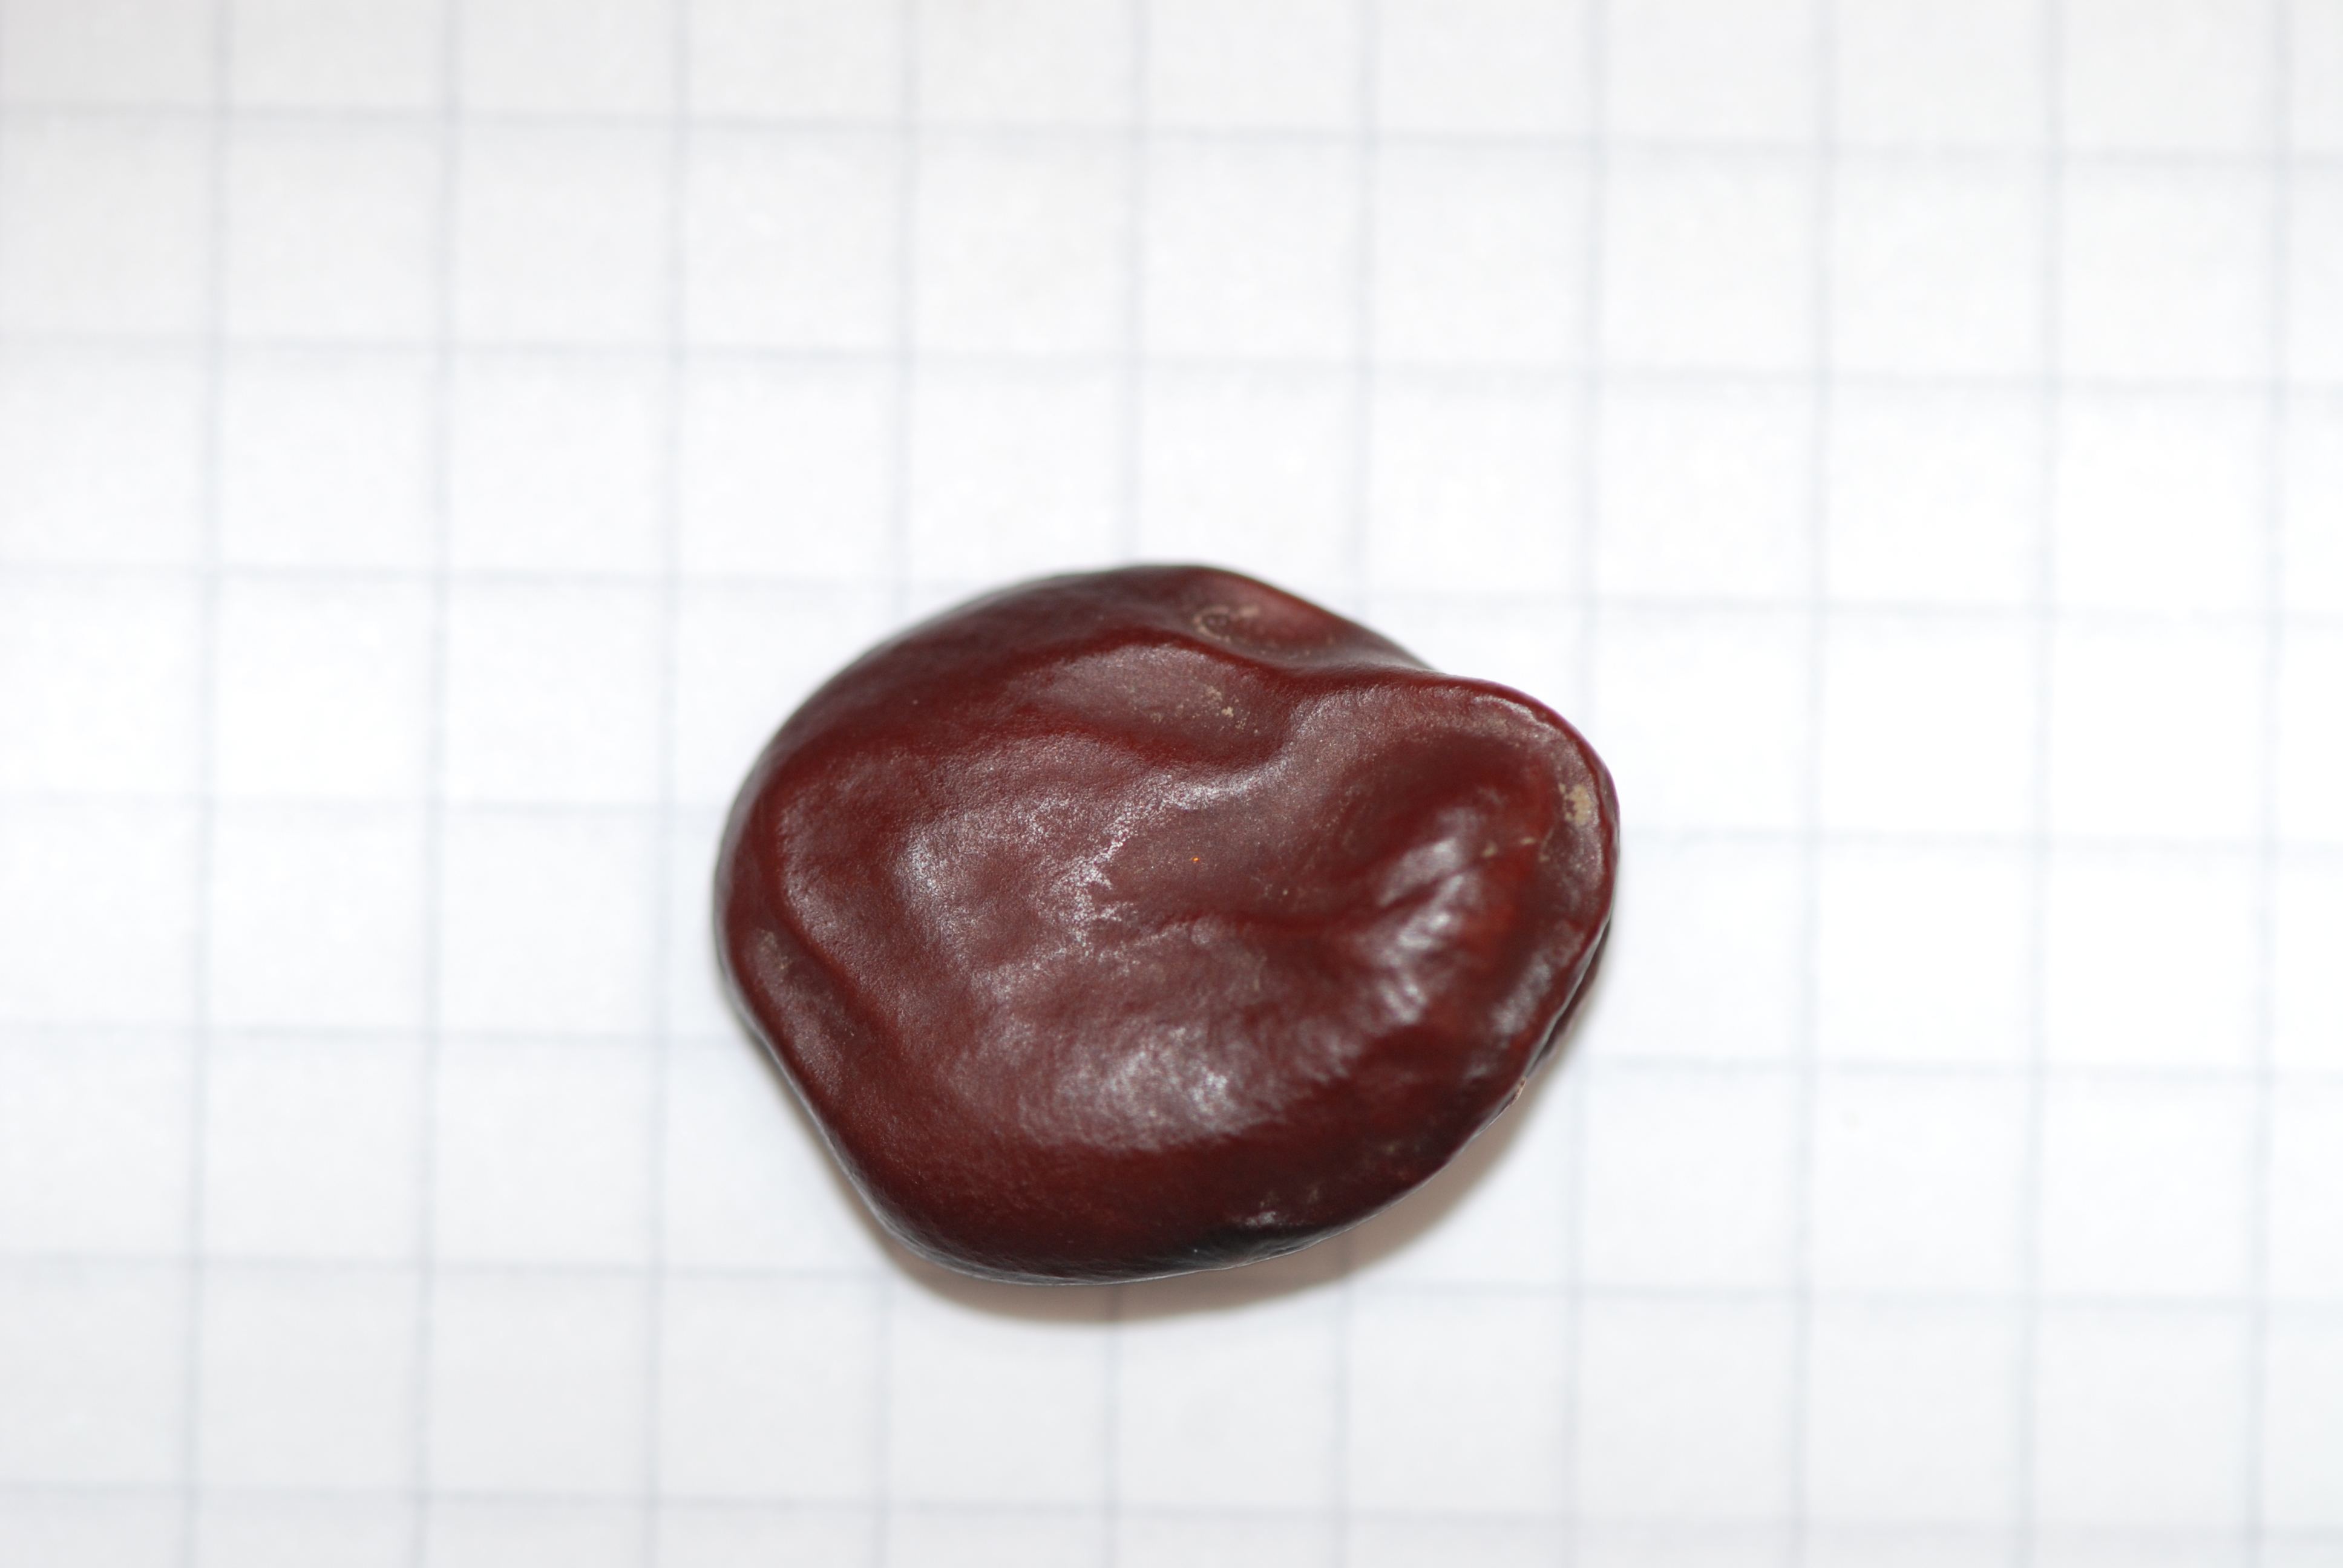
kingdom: Plantae
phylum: Tracheophyta
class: Magnoliopsida
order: Fabales
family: Fabaceae
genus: Vicia
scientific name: Vicia faba
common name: Broad bean
